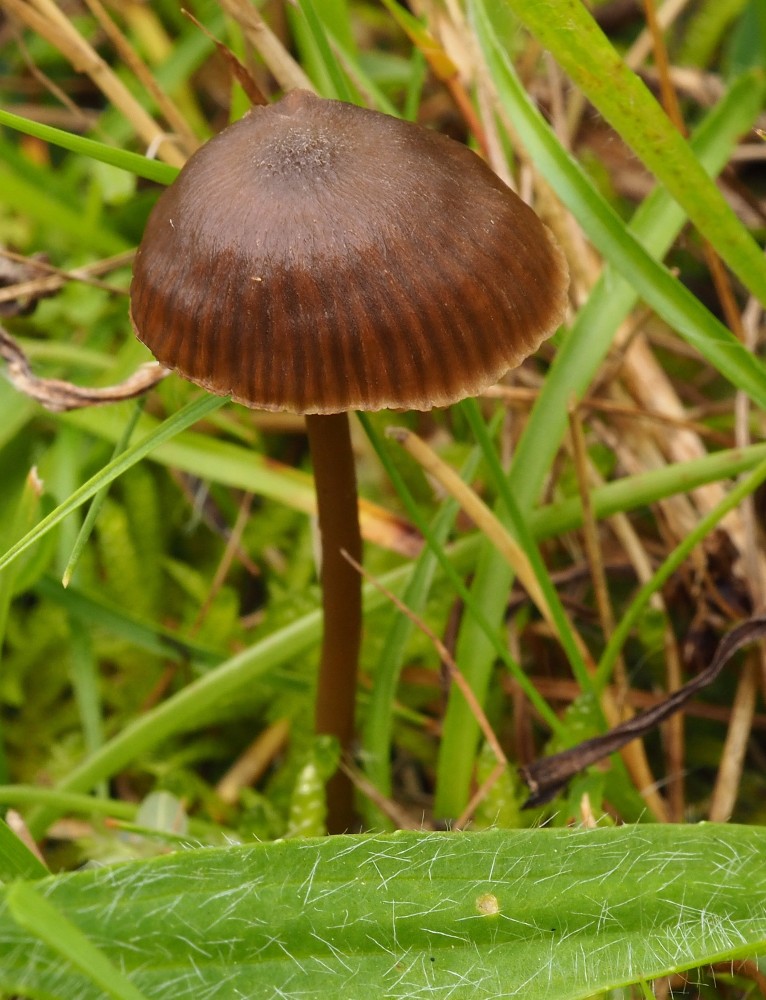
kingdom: Fungi
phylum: Basidiomycota
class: Agaricomycetes
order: Agaricales
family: Entolomataceae
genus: Entoloma
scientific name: Entoloma clandestinum
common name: tykbladet rødblad
